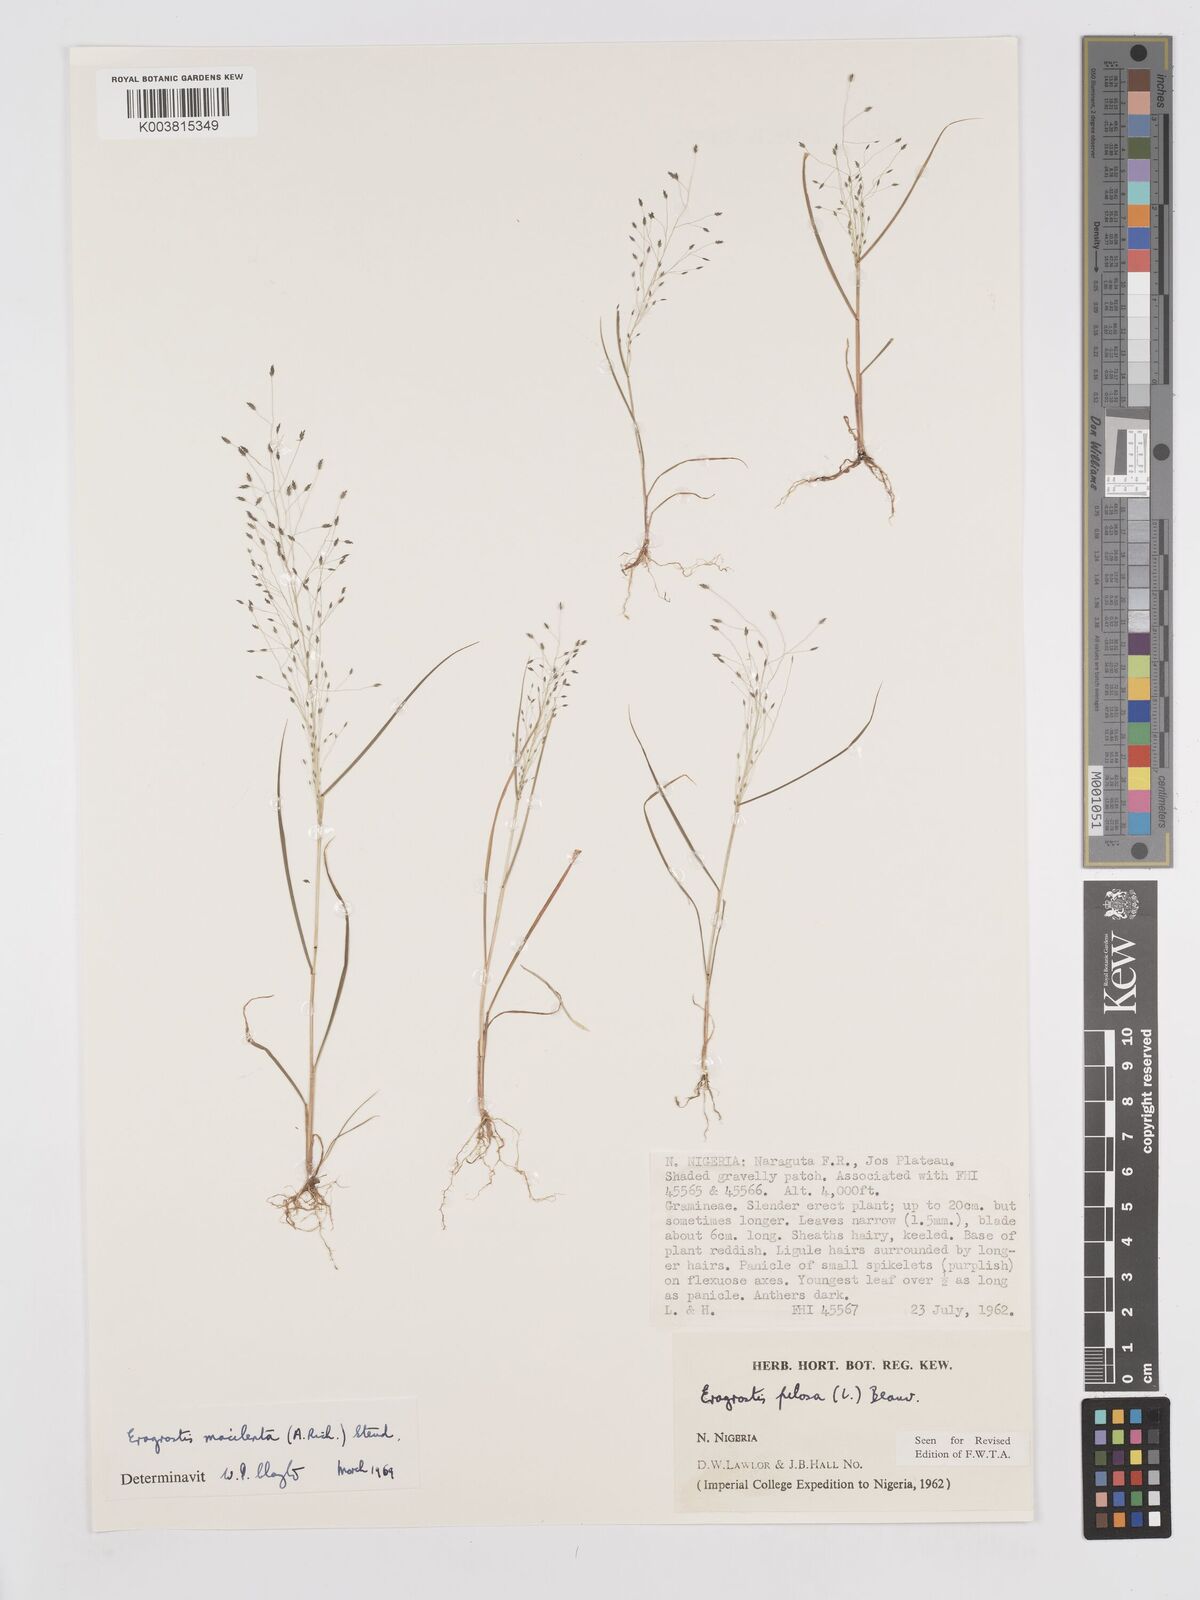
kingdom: Plantae
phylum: Tracheophyta
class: Liliopsida
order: Poales
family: Poaceae
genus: Eragrostis
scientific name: Eragrostis macilenta
